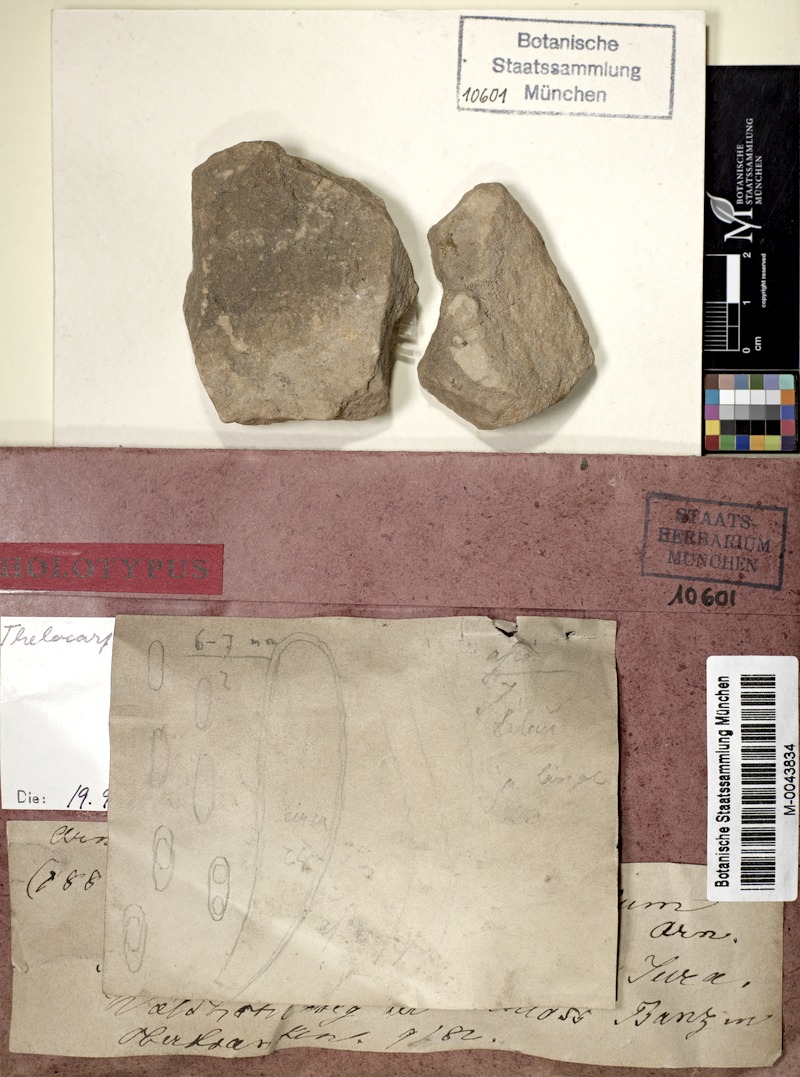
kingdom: Fungi
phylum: Ascomycota
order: Thelocarpales
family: Thelocarpaceae
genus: Thelocarpon
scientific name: Thelocarpon lichenicola
